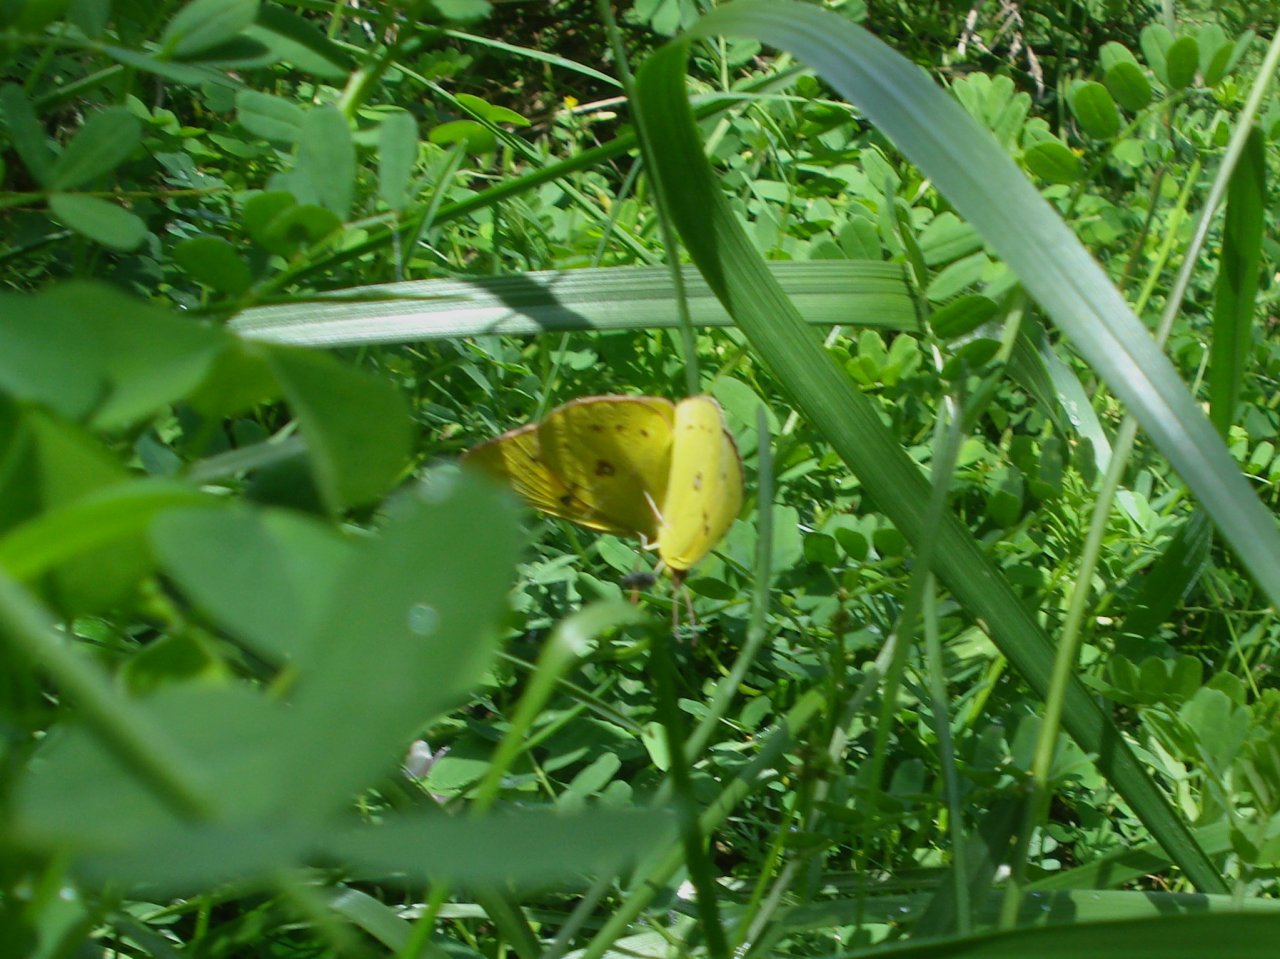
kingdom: Animalia
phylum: Arthropoda
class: Insecta
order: Lepidoptera
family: Pieridae
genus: Colias
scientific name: Colias philodice
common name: Clouded Sulphur
